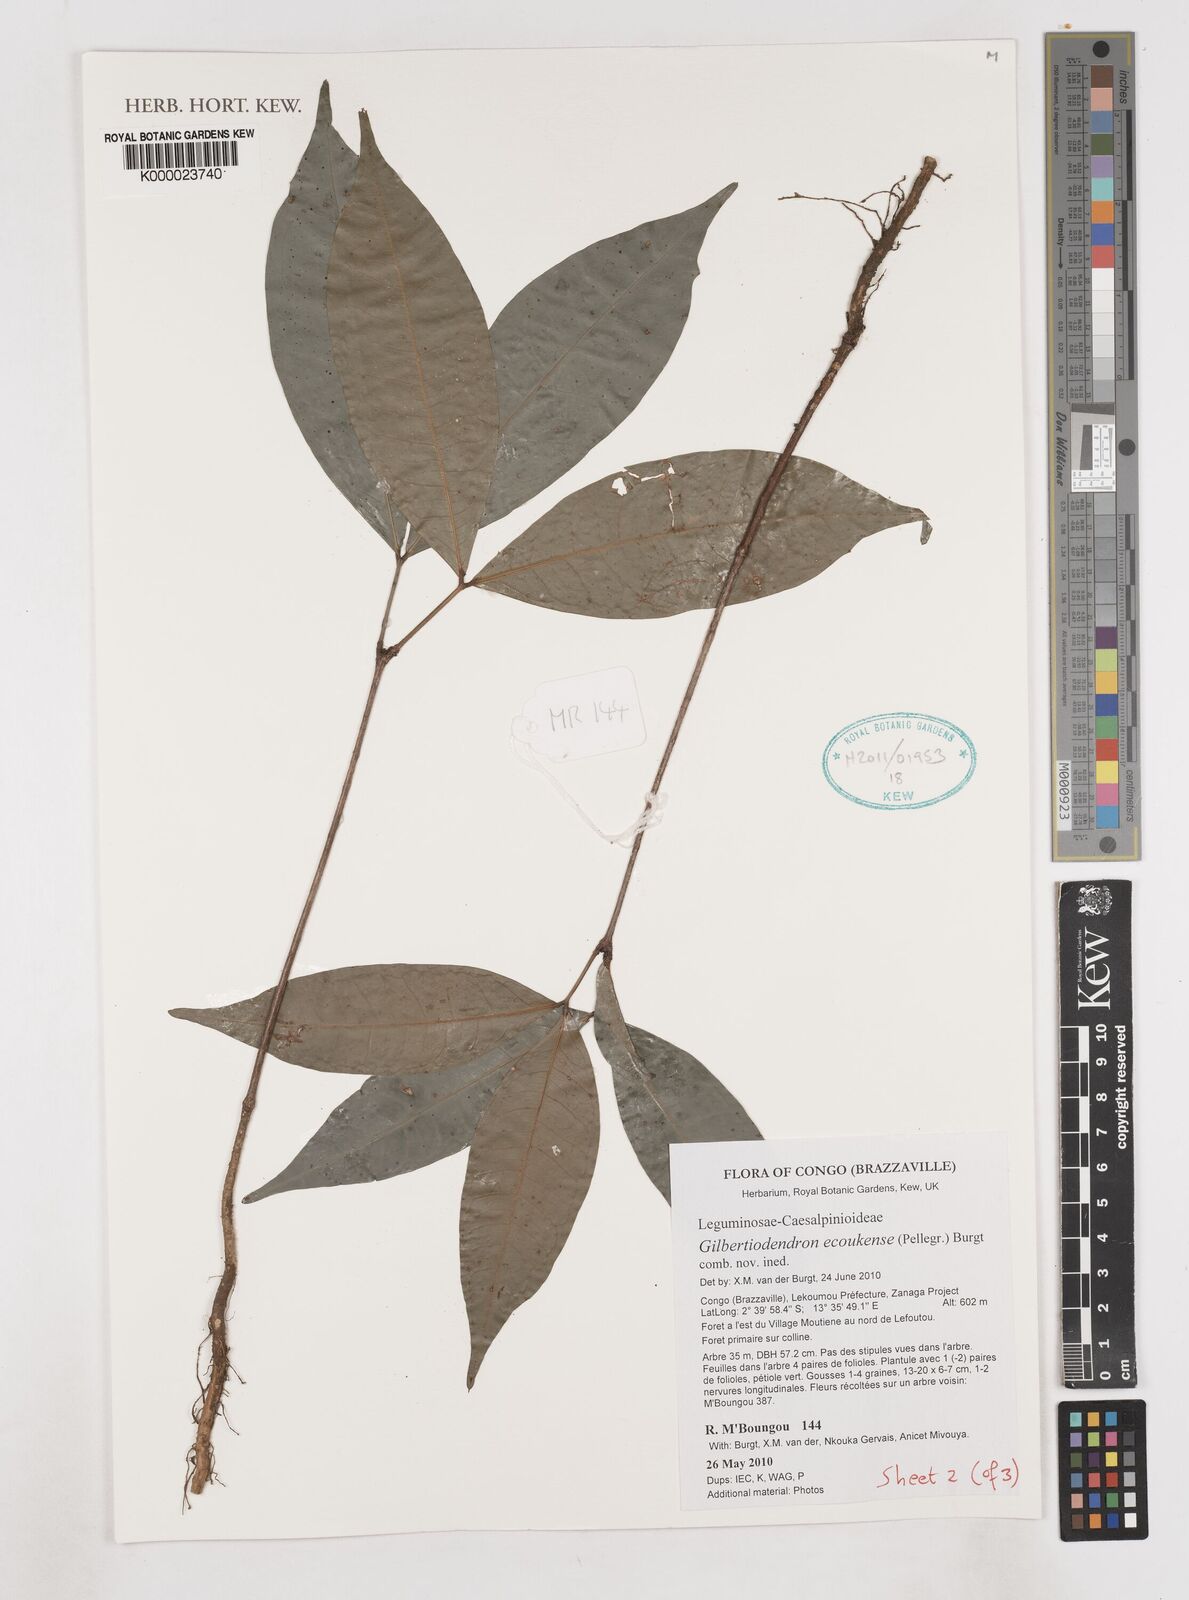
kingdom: Plantae
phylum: Tracheophyta
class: Magnoliopsida
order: Fabales
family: Fabaceae
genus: Gilbertiodendron
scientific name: Gilbertiodendron ecoukense
